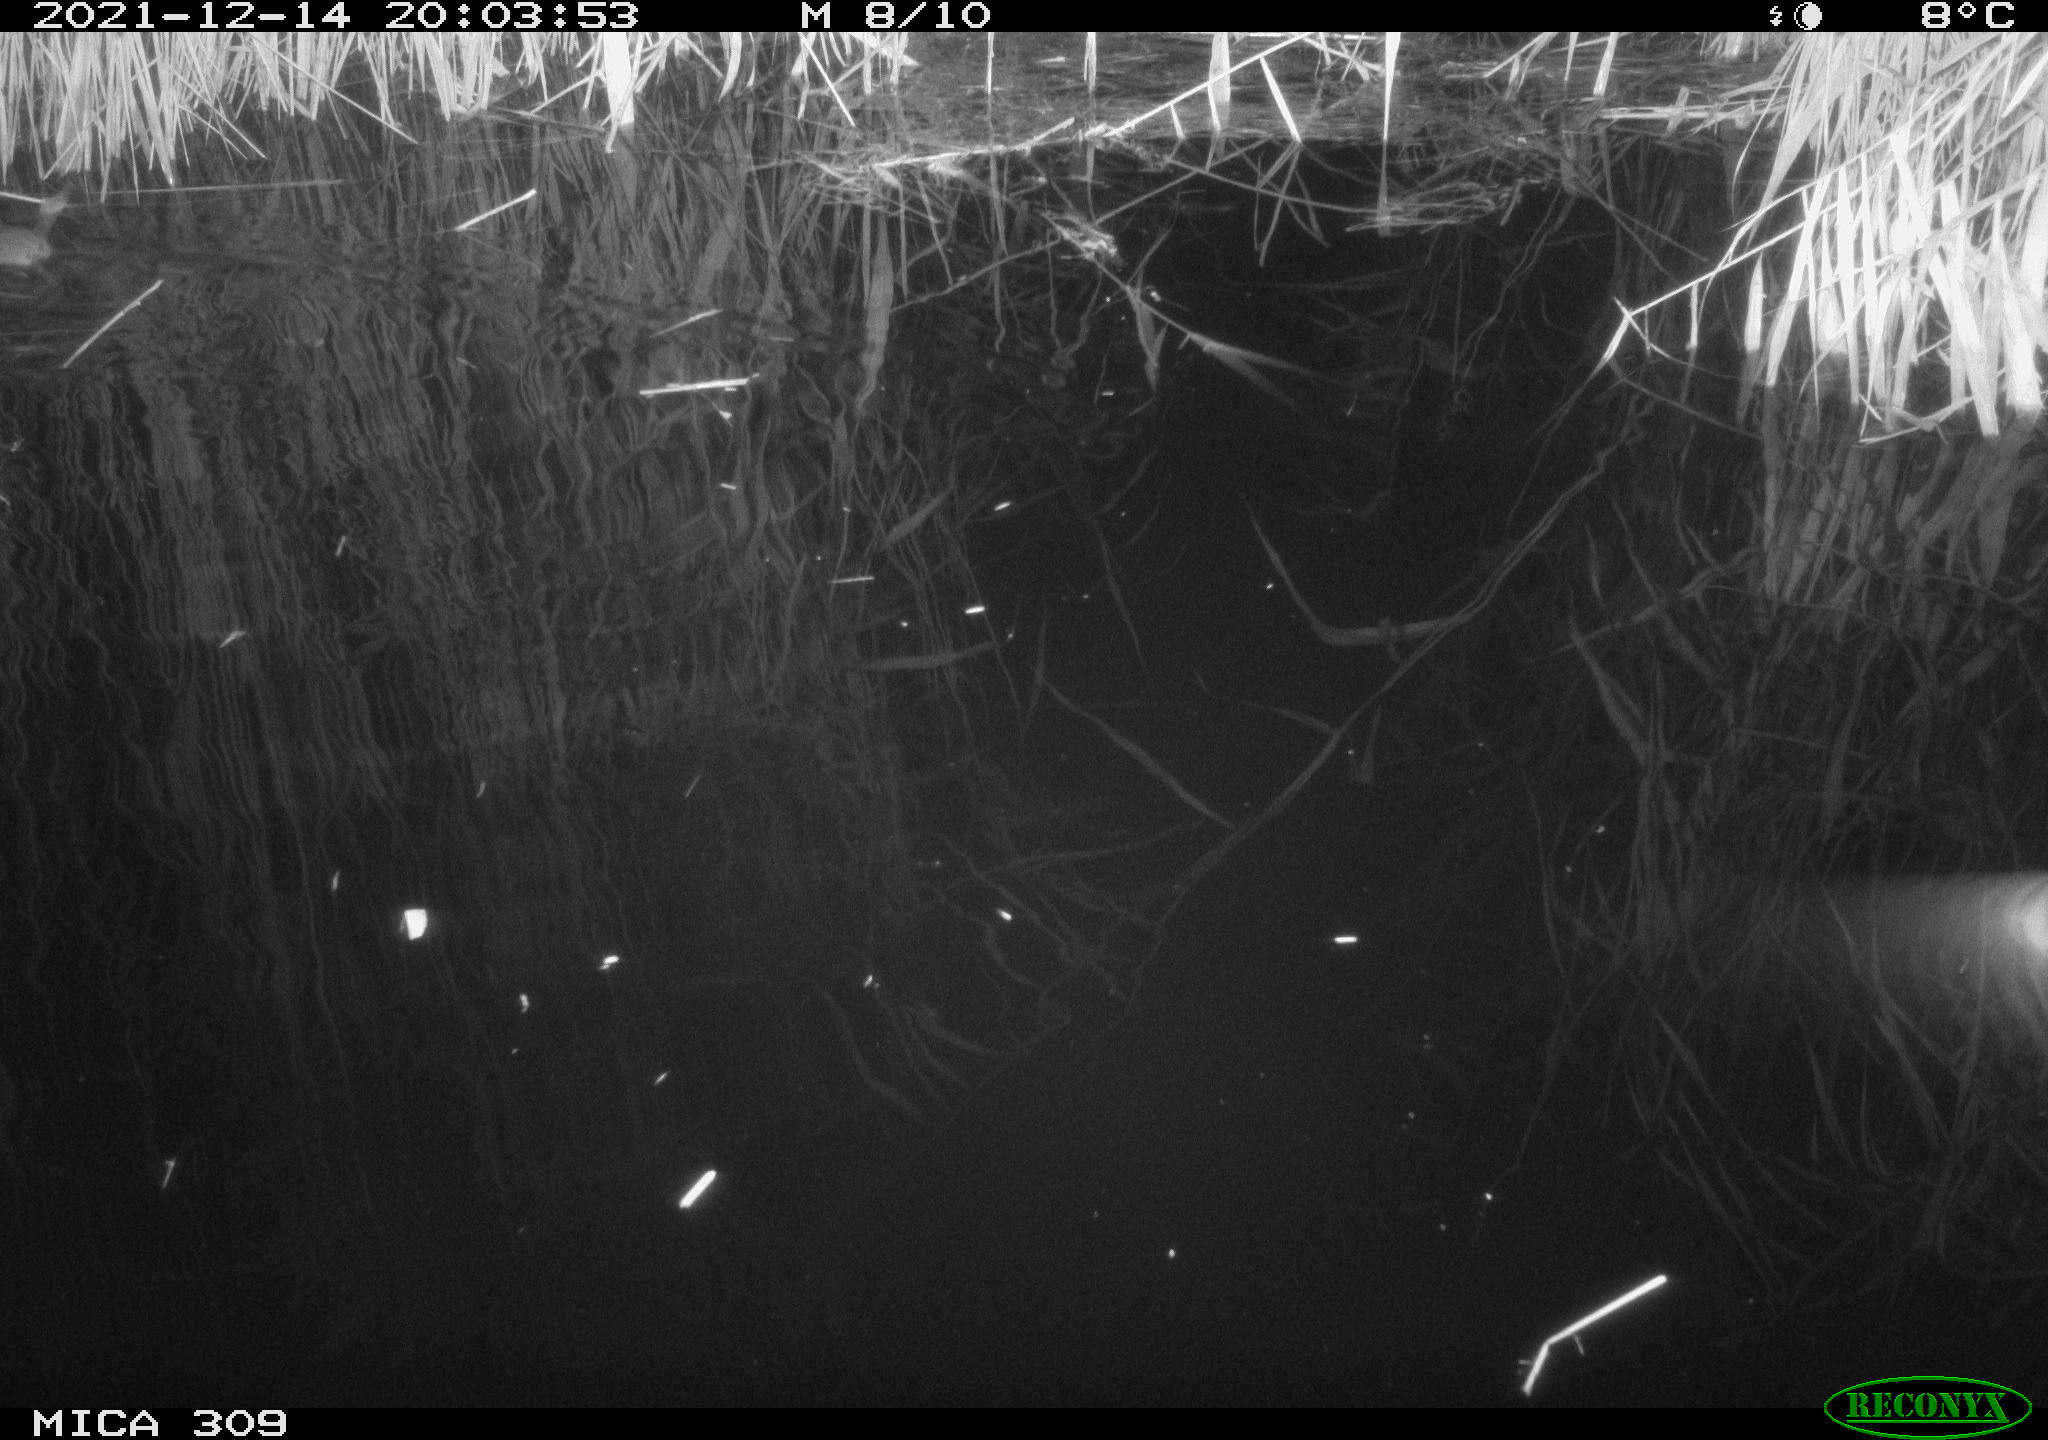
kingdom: Animalia
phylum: Chordata
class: Mammalia
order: Rodentia
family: Muridae
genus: Rattus
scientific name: Rattus norvegicus
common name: Brown rat
